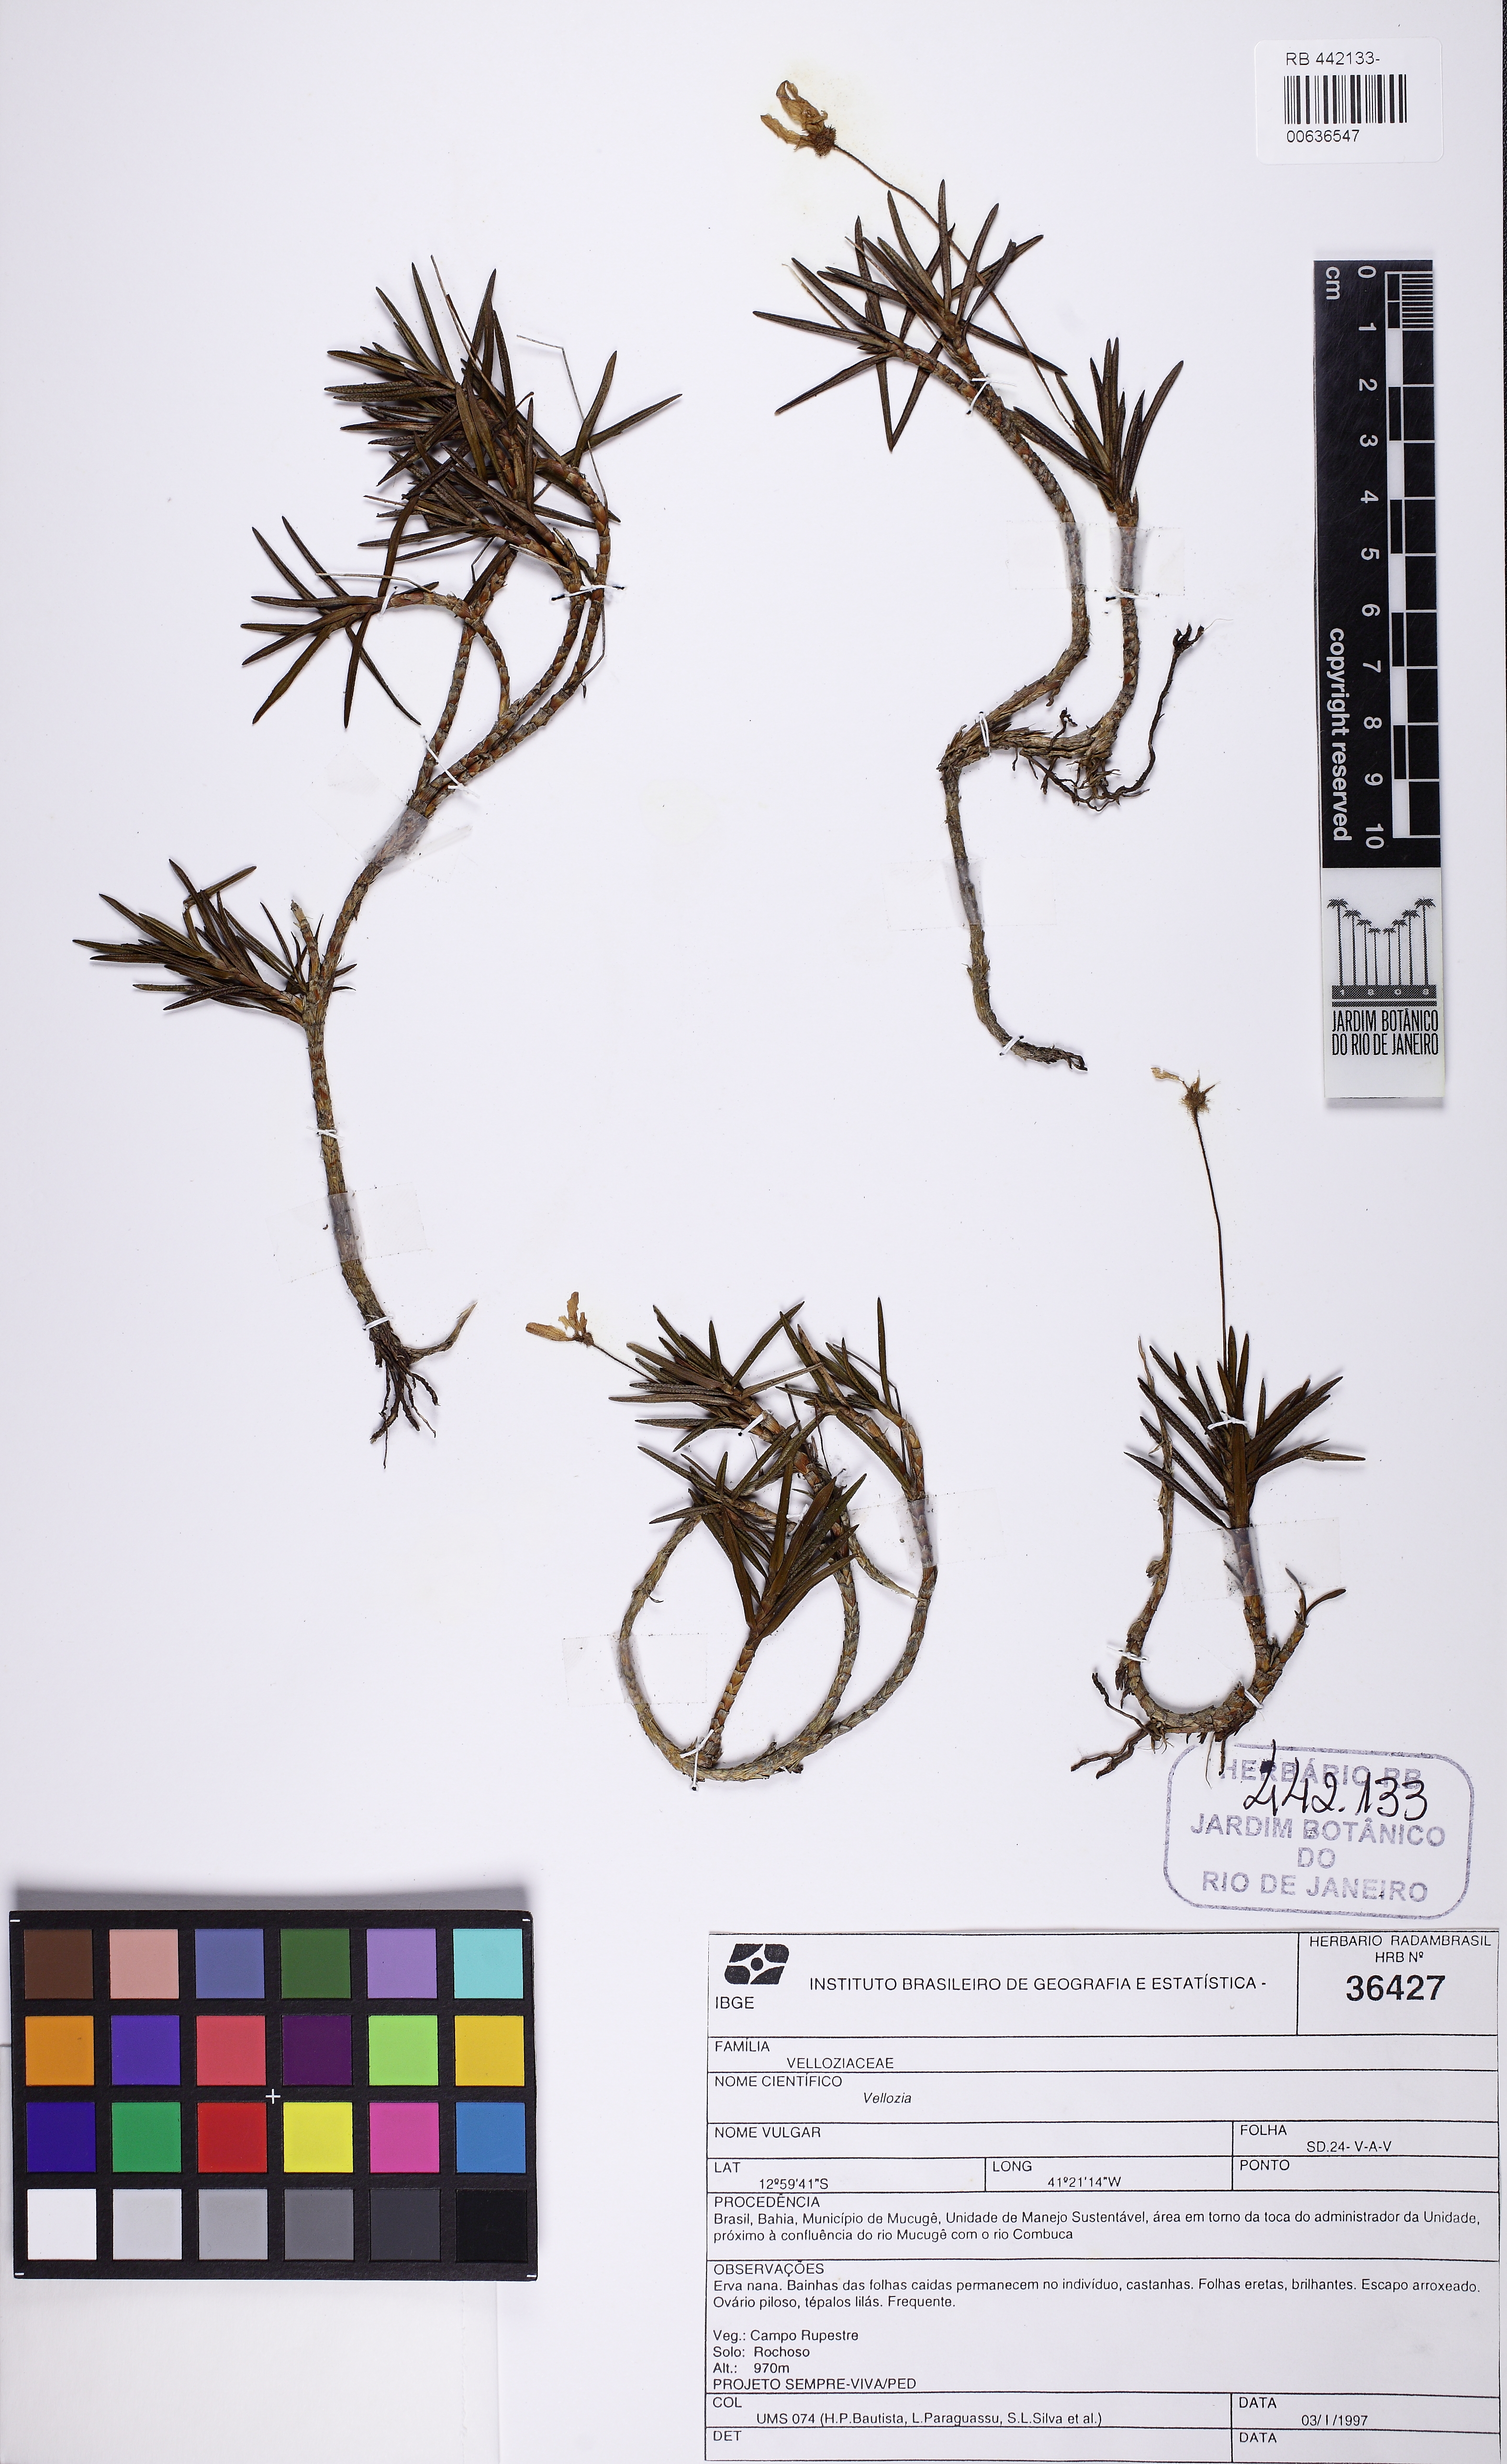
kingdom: Plantae
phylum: Tracheophyta
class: Liliopsida
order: Pandanales
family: Velloziaceae
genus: Vellozia
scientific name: Vellozia
